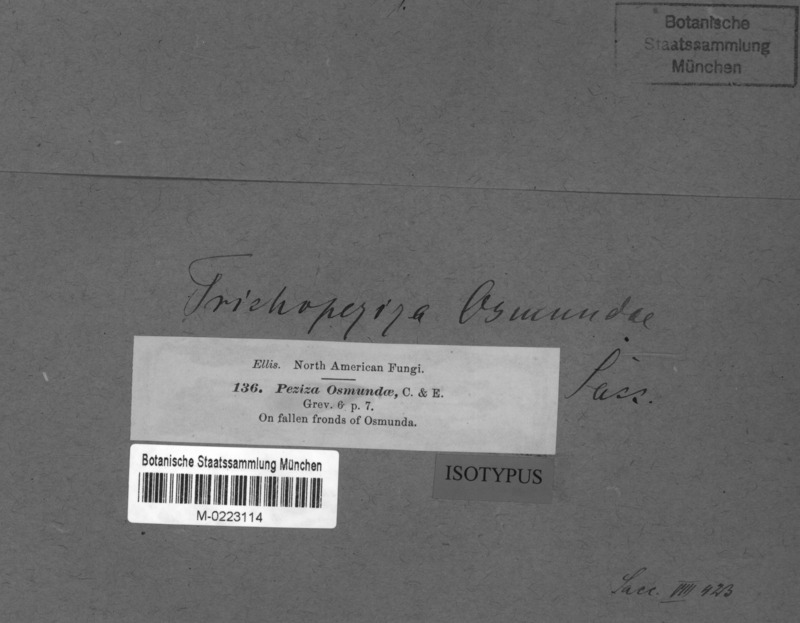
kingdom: Fungi
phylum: Ascomycota
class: Leotiomycetes
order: Helotiales
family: Pezizellaceae
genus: Calycellina
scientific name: Calycellina osmundae
